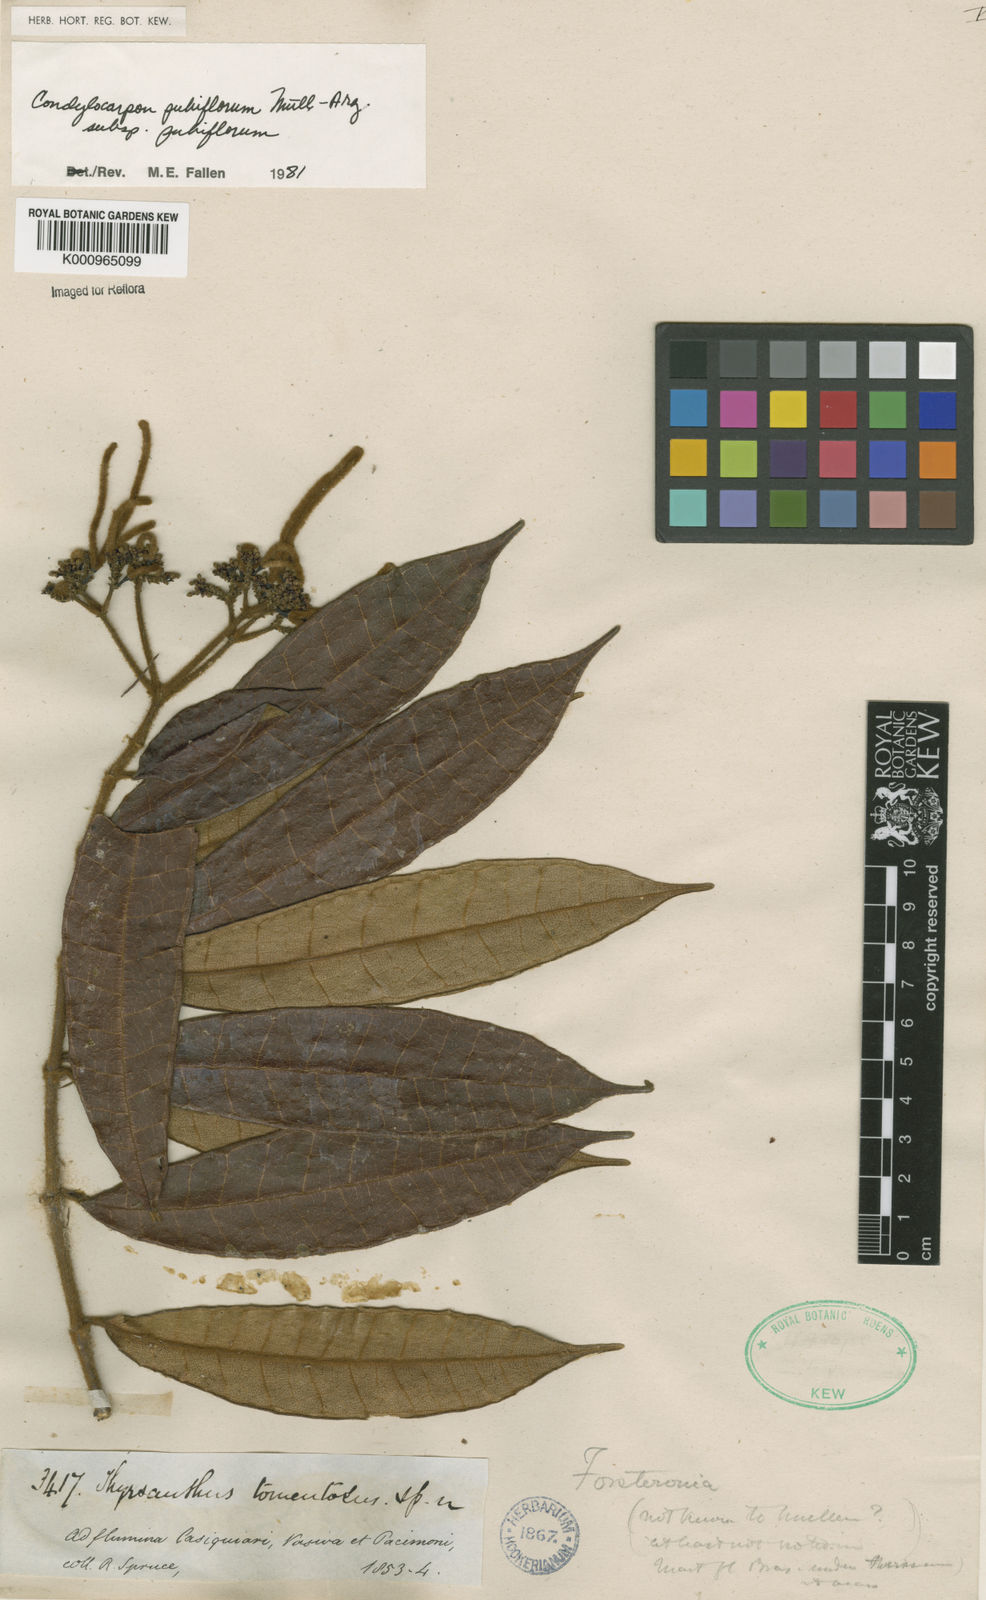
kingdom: Plantae
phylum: Tracheophyta
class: Magnoliopsida
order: Gentianales
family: Apocynaceae
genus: Condylocarpon
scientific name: Condylocarpon
